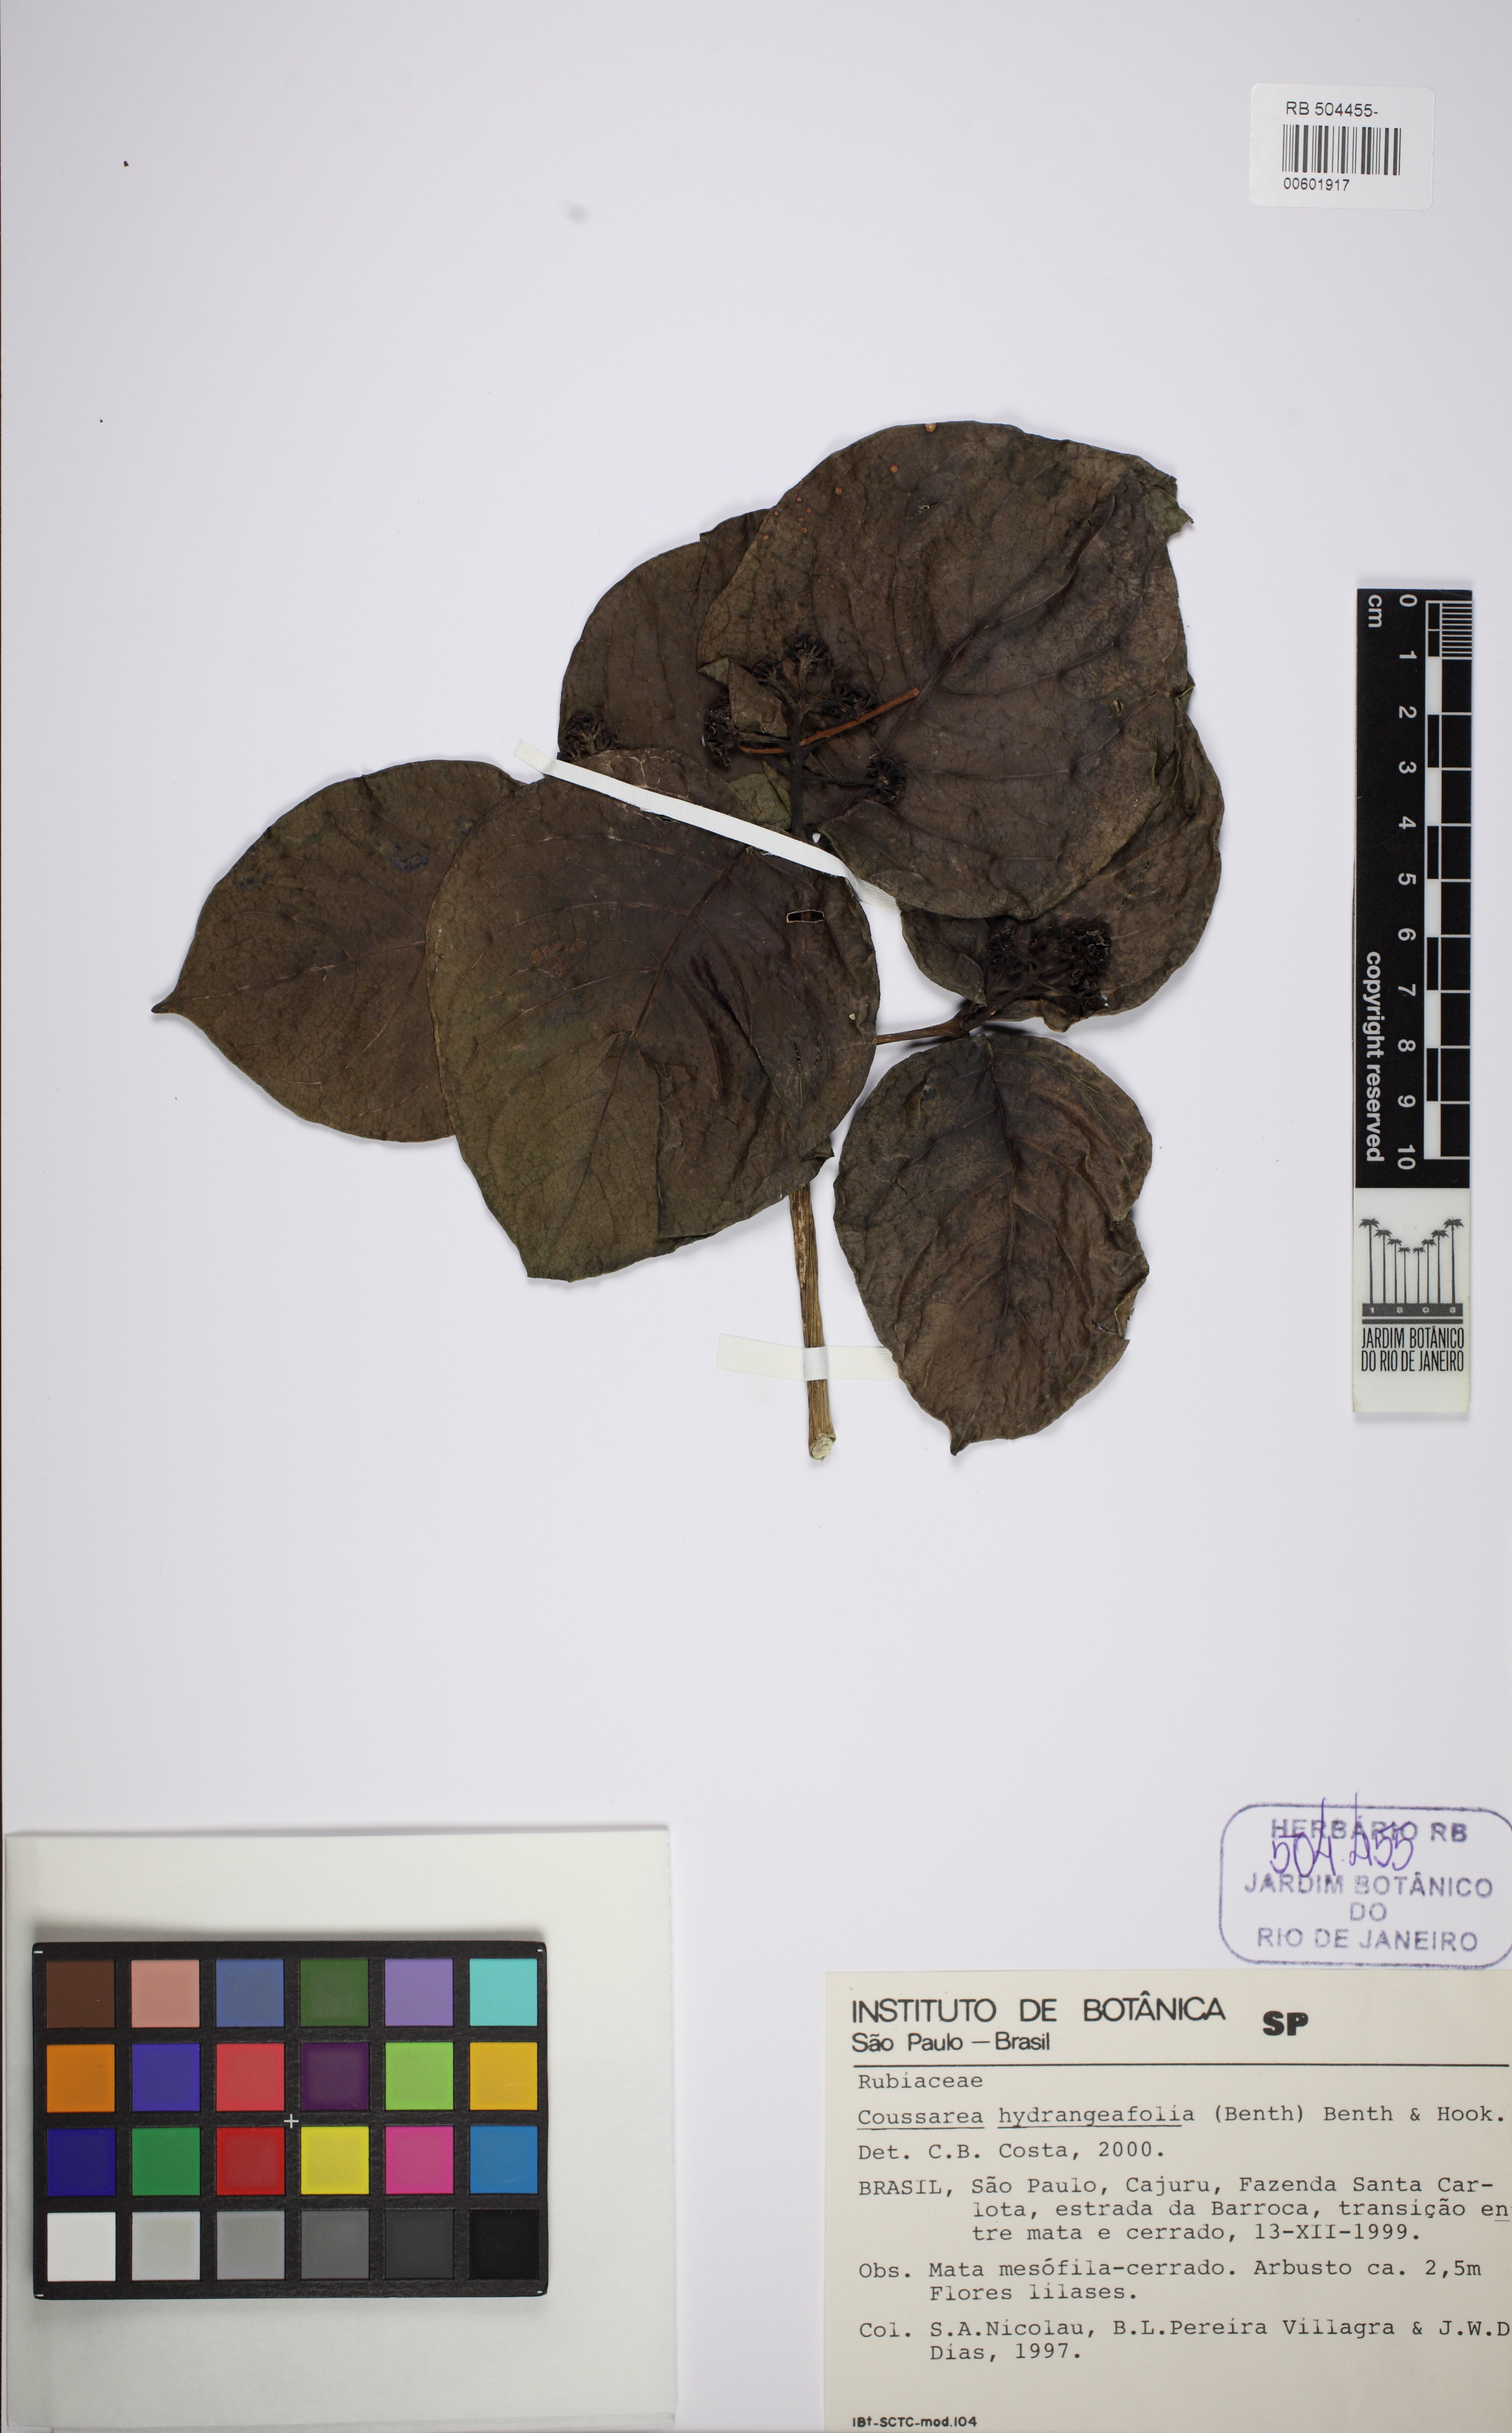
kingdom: Plantae
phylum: Tracheophyta
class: Magnoliopsida
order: Gentianales
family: Rubiaceae
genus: Coussarea
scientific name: Coussarea hydrangeifolia
